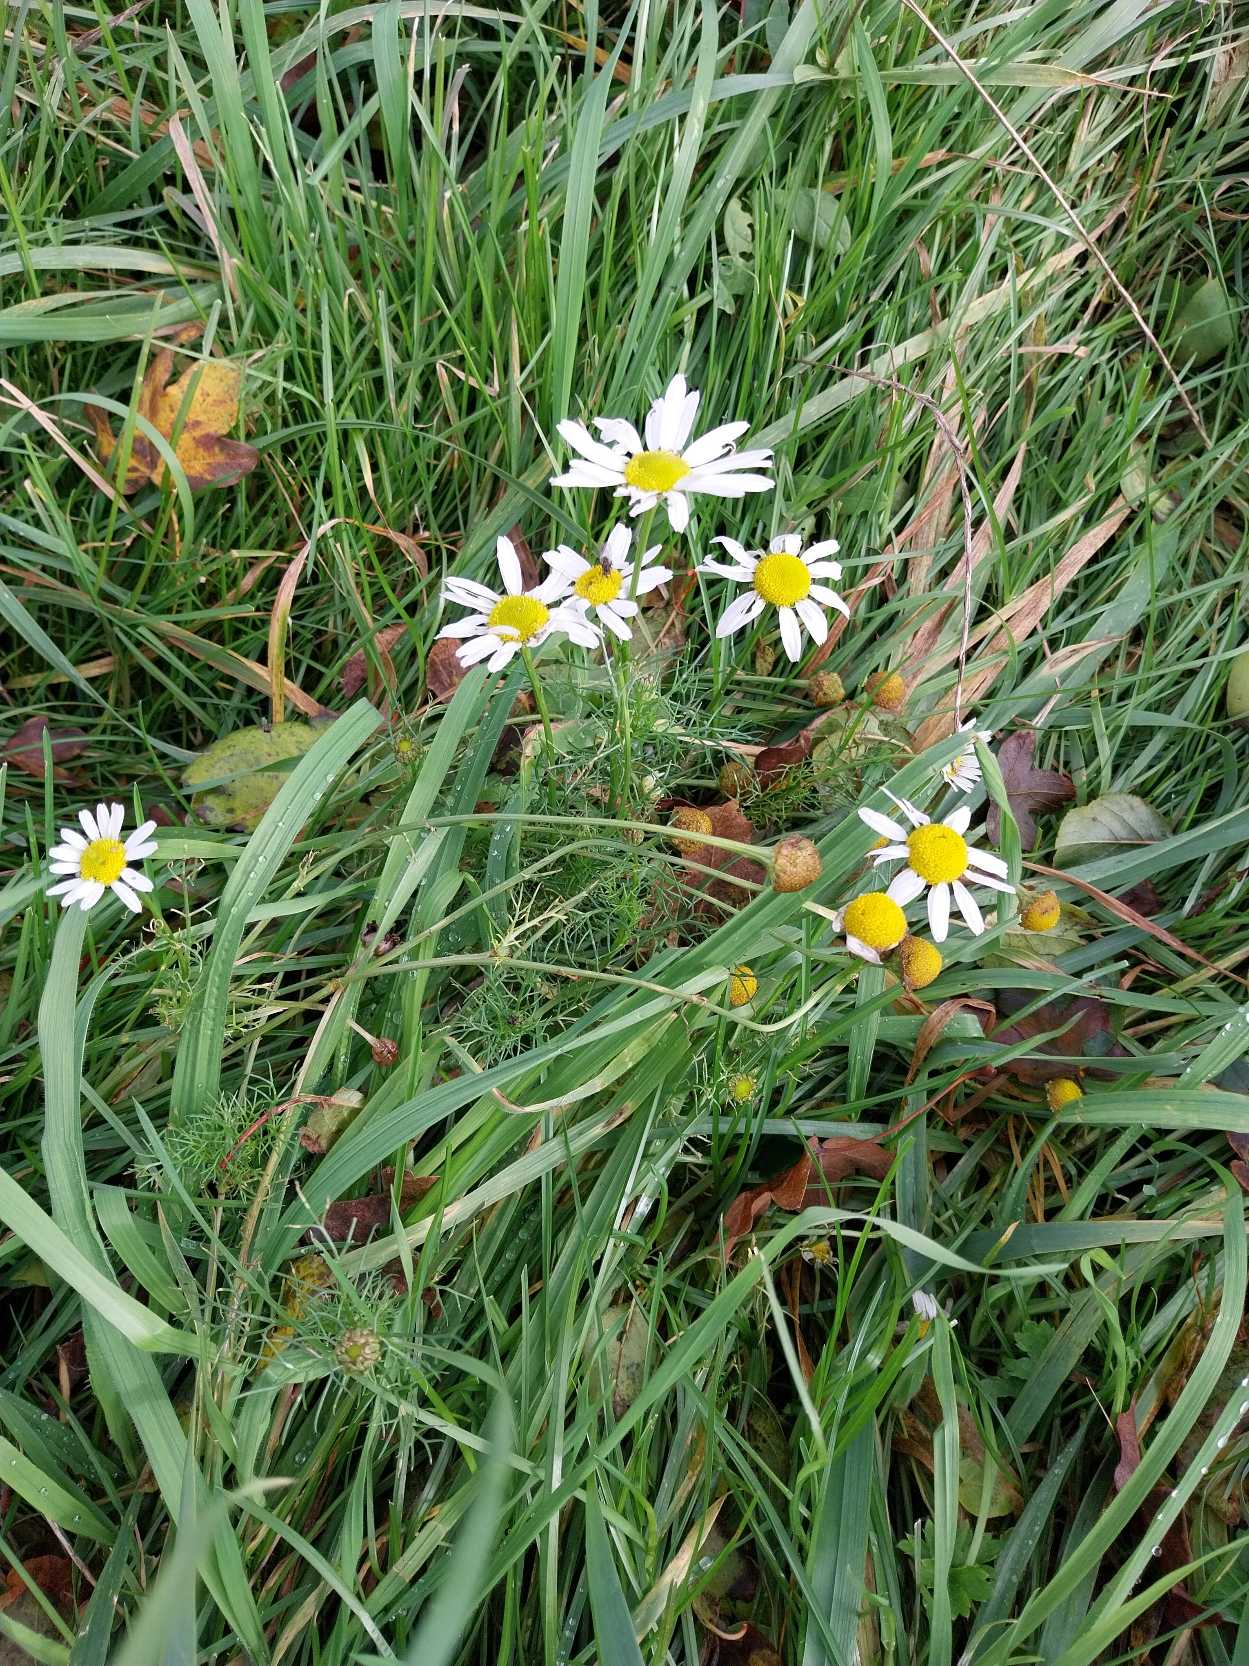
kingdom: Plantae
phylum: Tracheophyta
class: Magnoliopsida
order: Asterales
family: Asteraceae
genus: Tripleurospermum
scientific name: Tripleurospermum inodorum
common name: Lugtløs kamille
